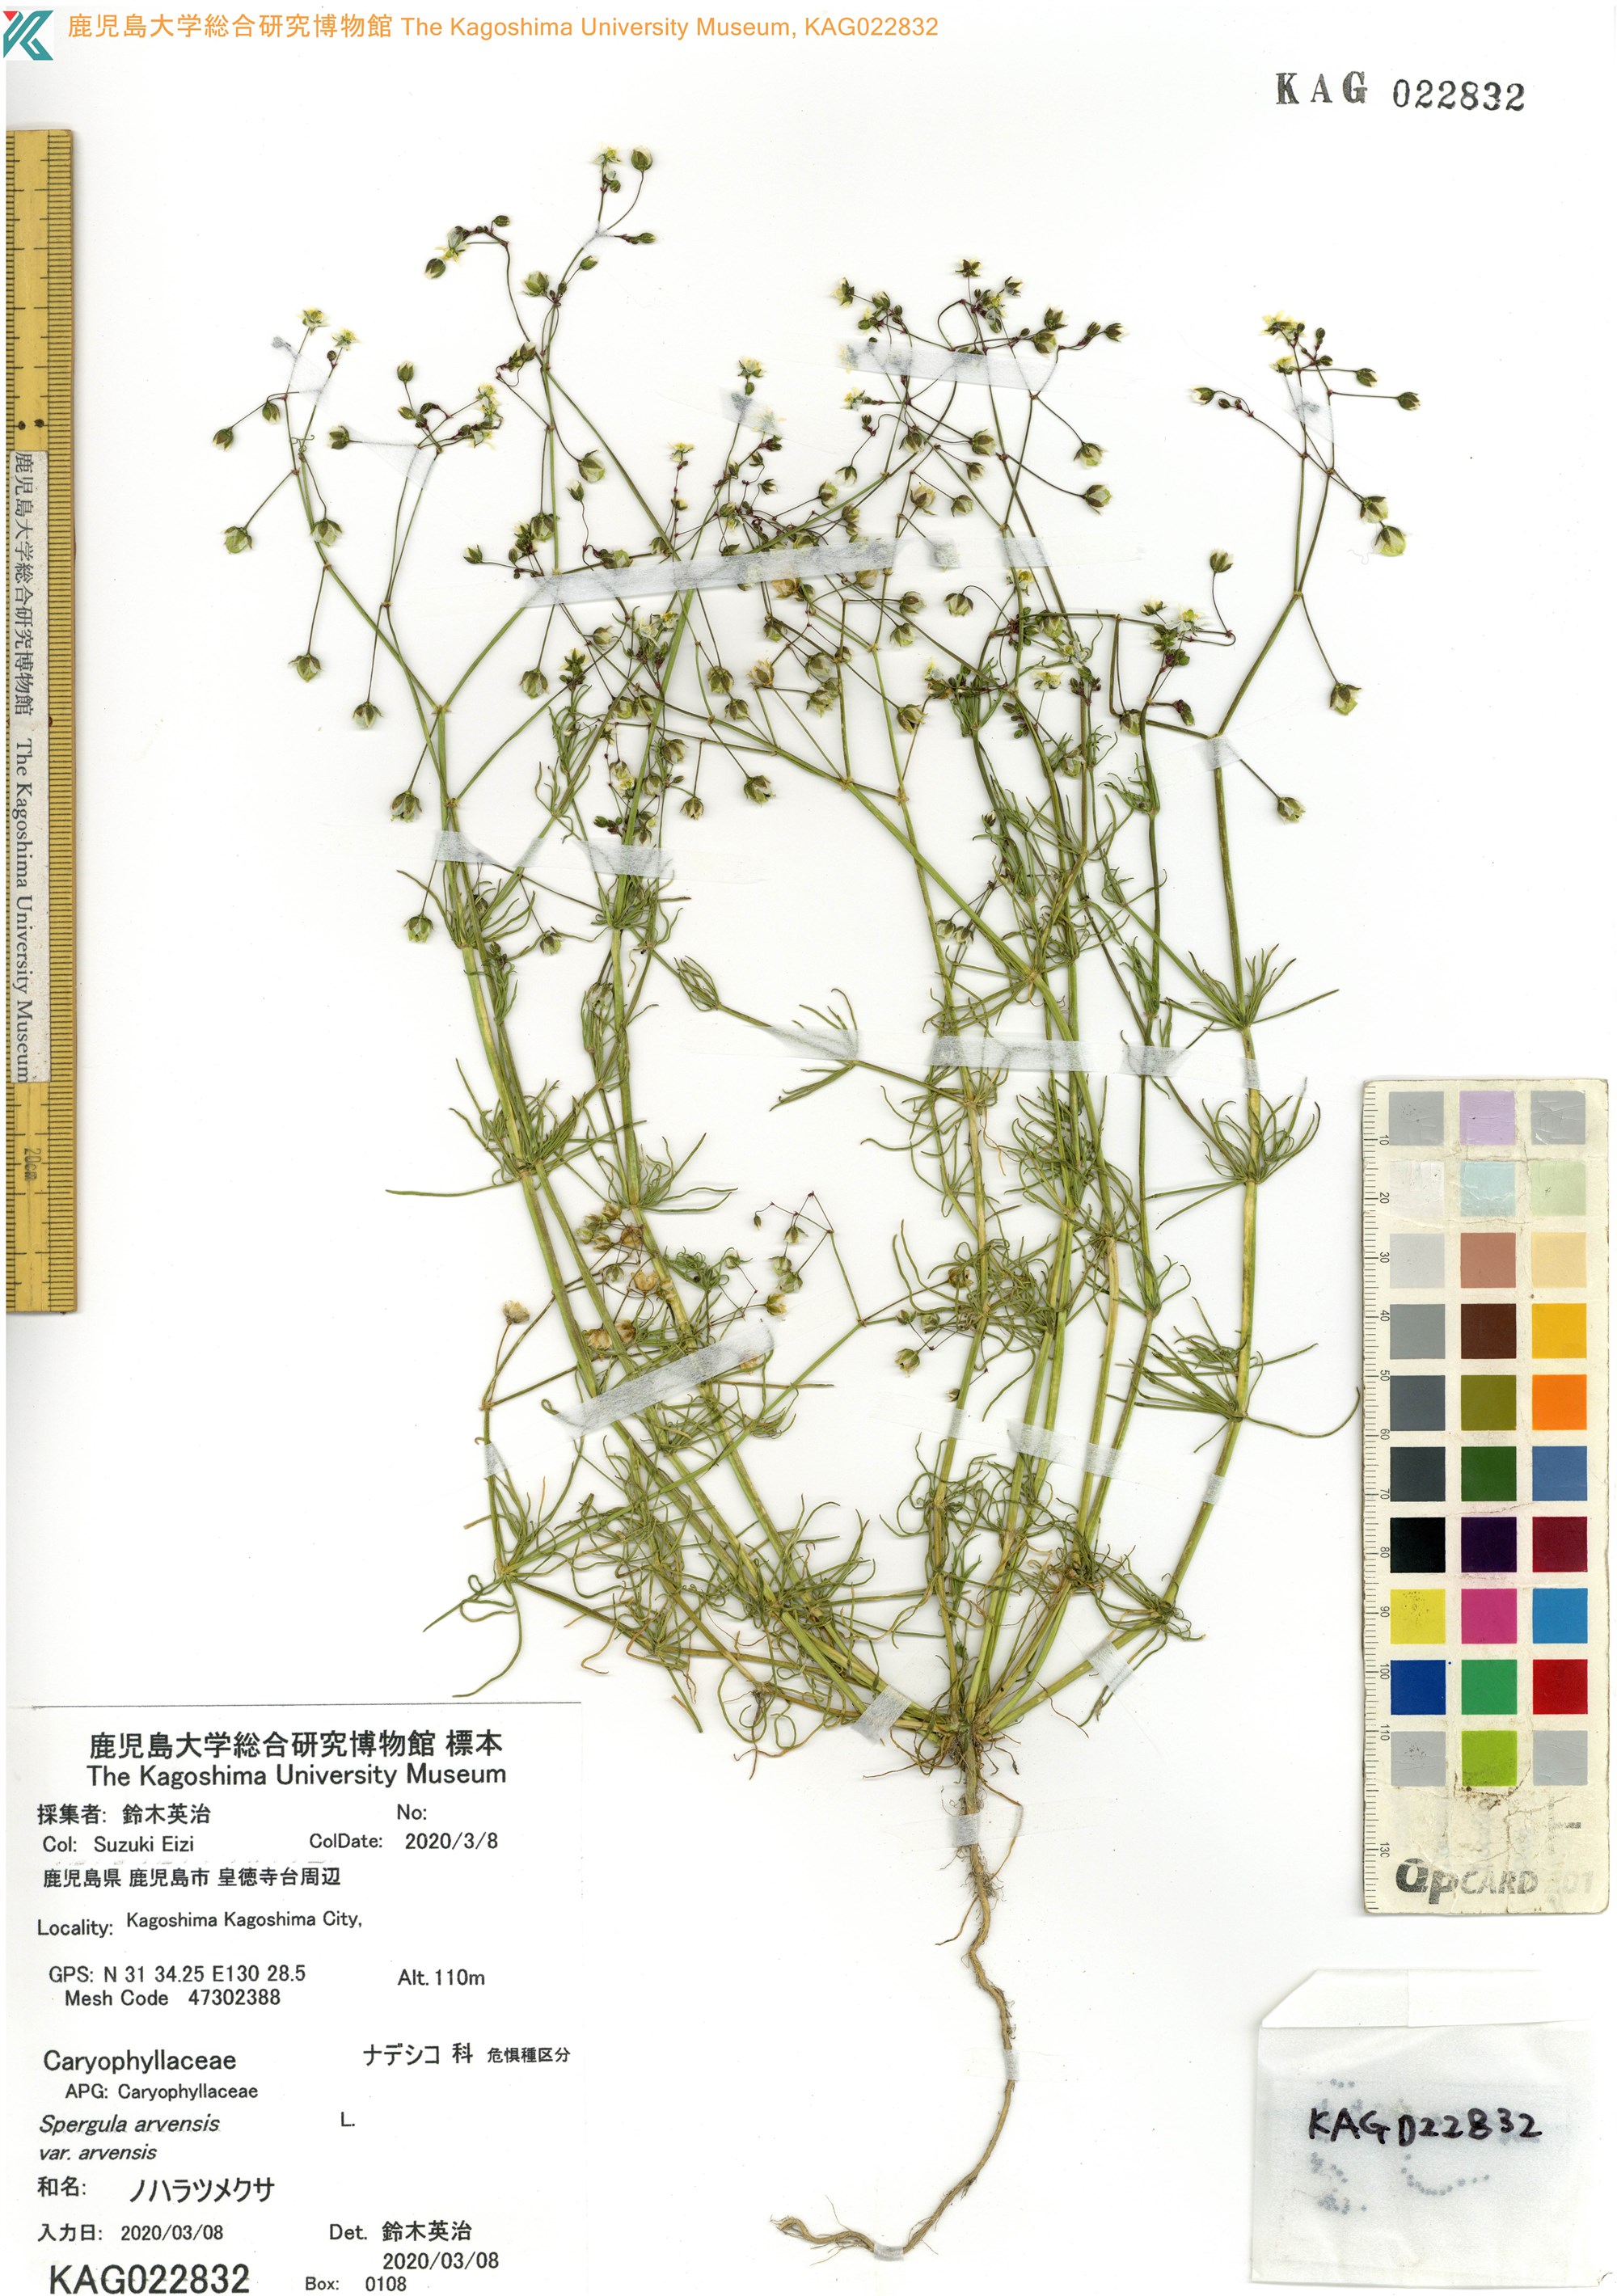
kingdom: Plantae
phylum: Tracheophyta
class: Magnoliopsida
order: Caryophyllales
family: Caryophyllaceae
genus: Spergula
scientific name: Spergula arvensis
